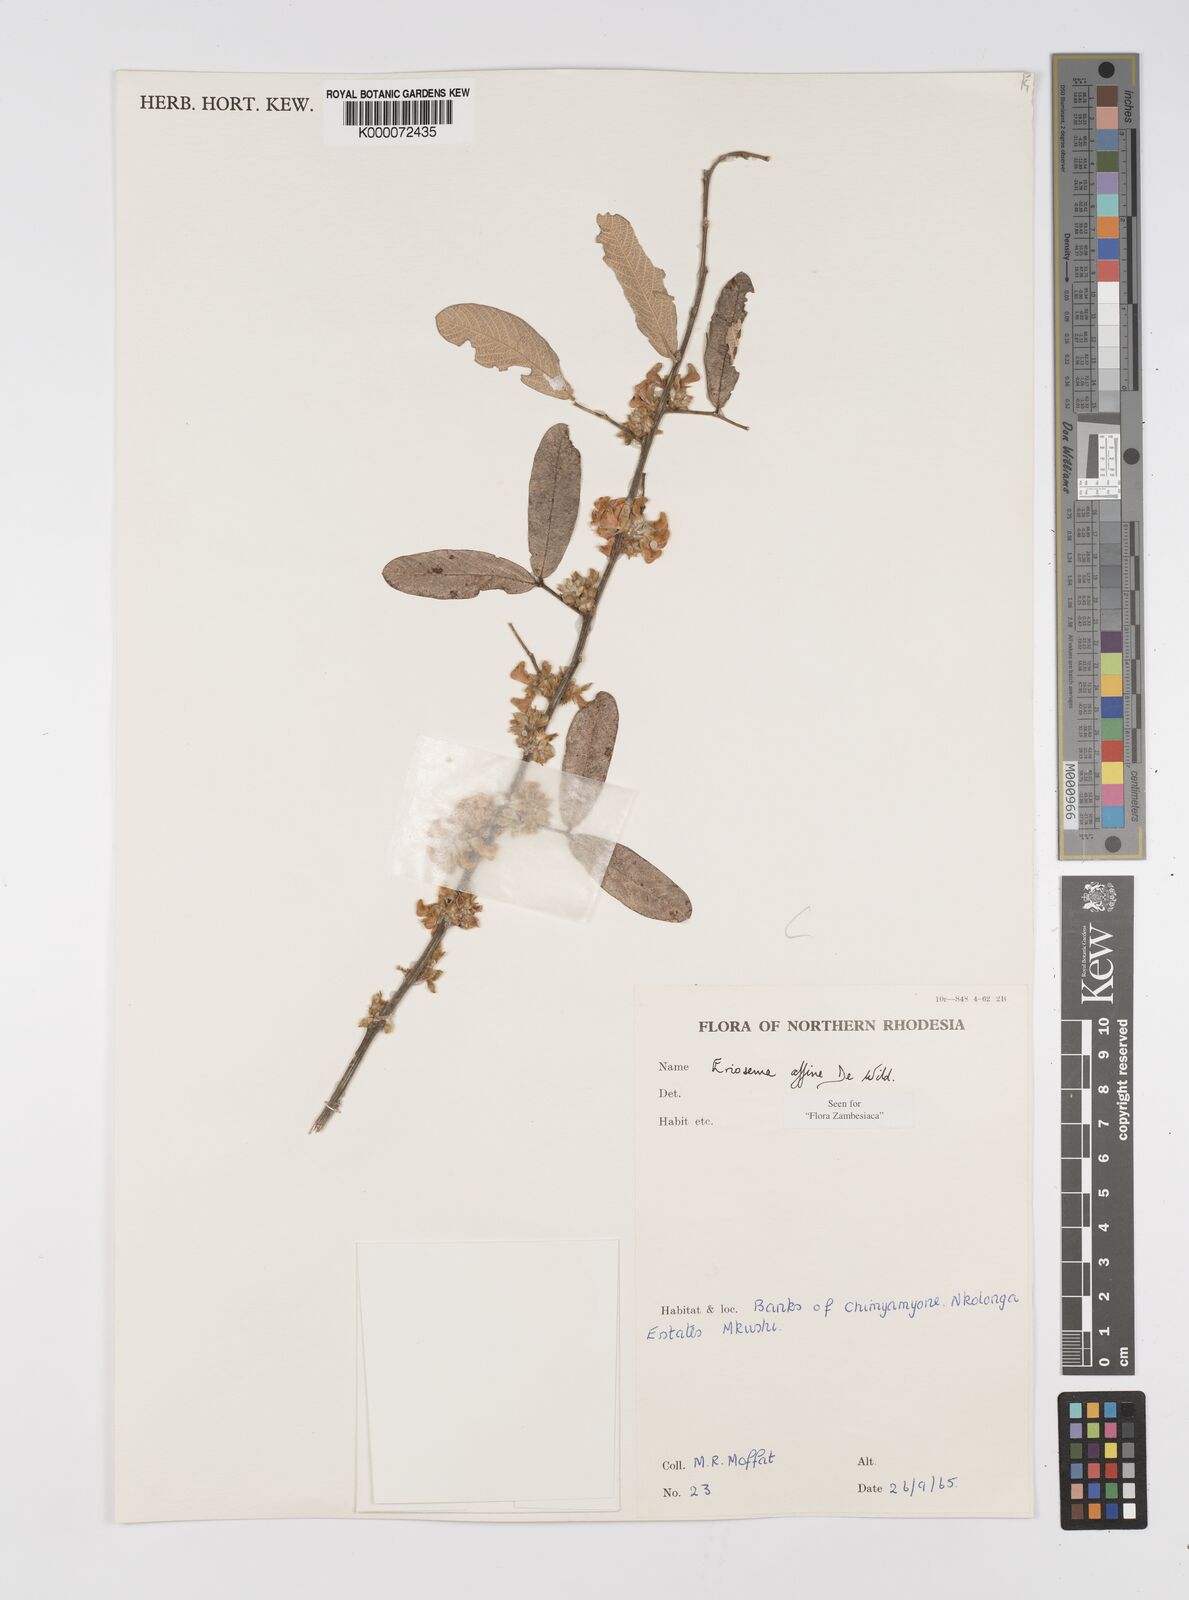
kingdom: Plantae
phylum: Tracheophyta
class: Magnoliopsida
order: Fabales
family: Fabaceae
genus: Eriosema
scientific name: Eriosema affine
